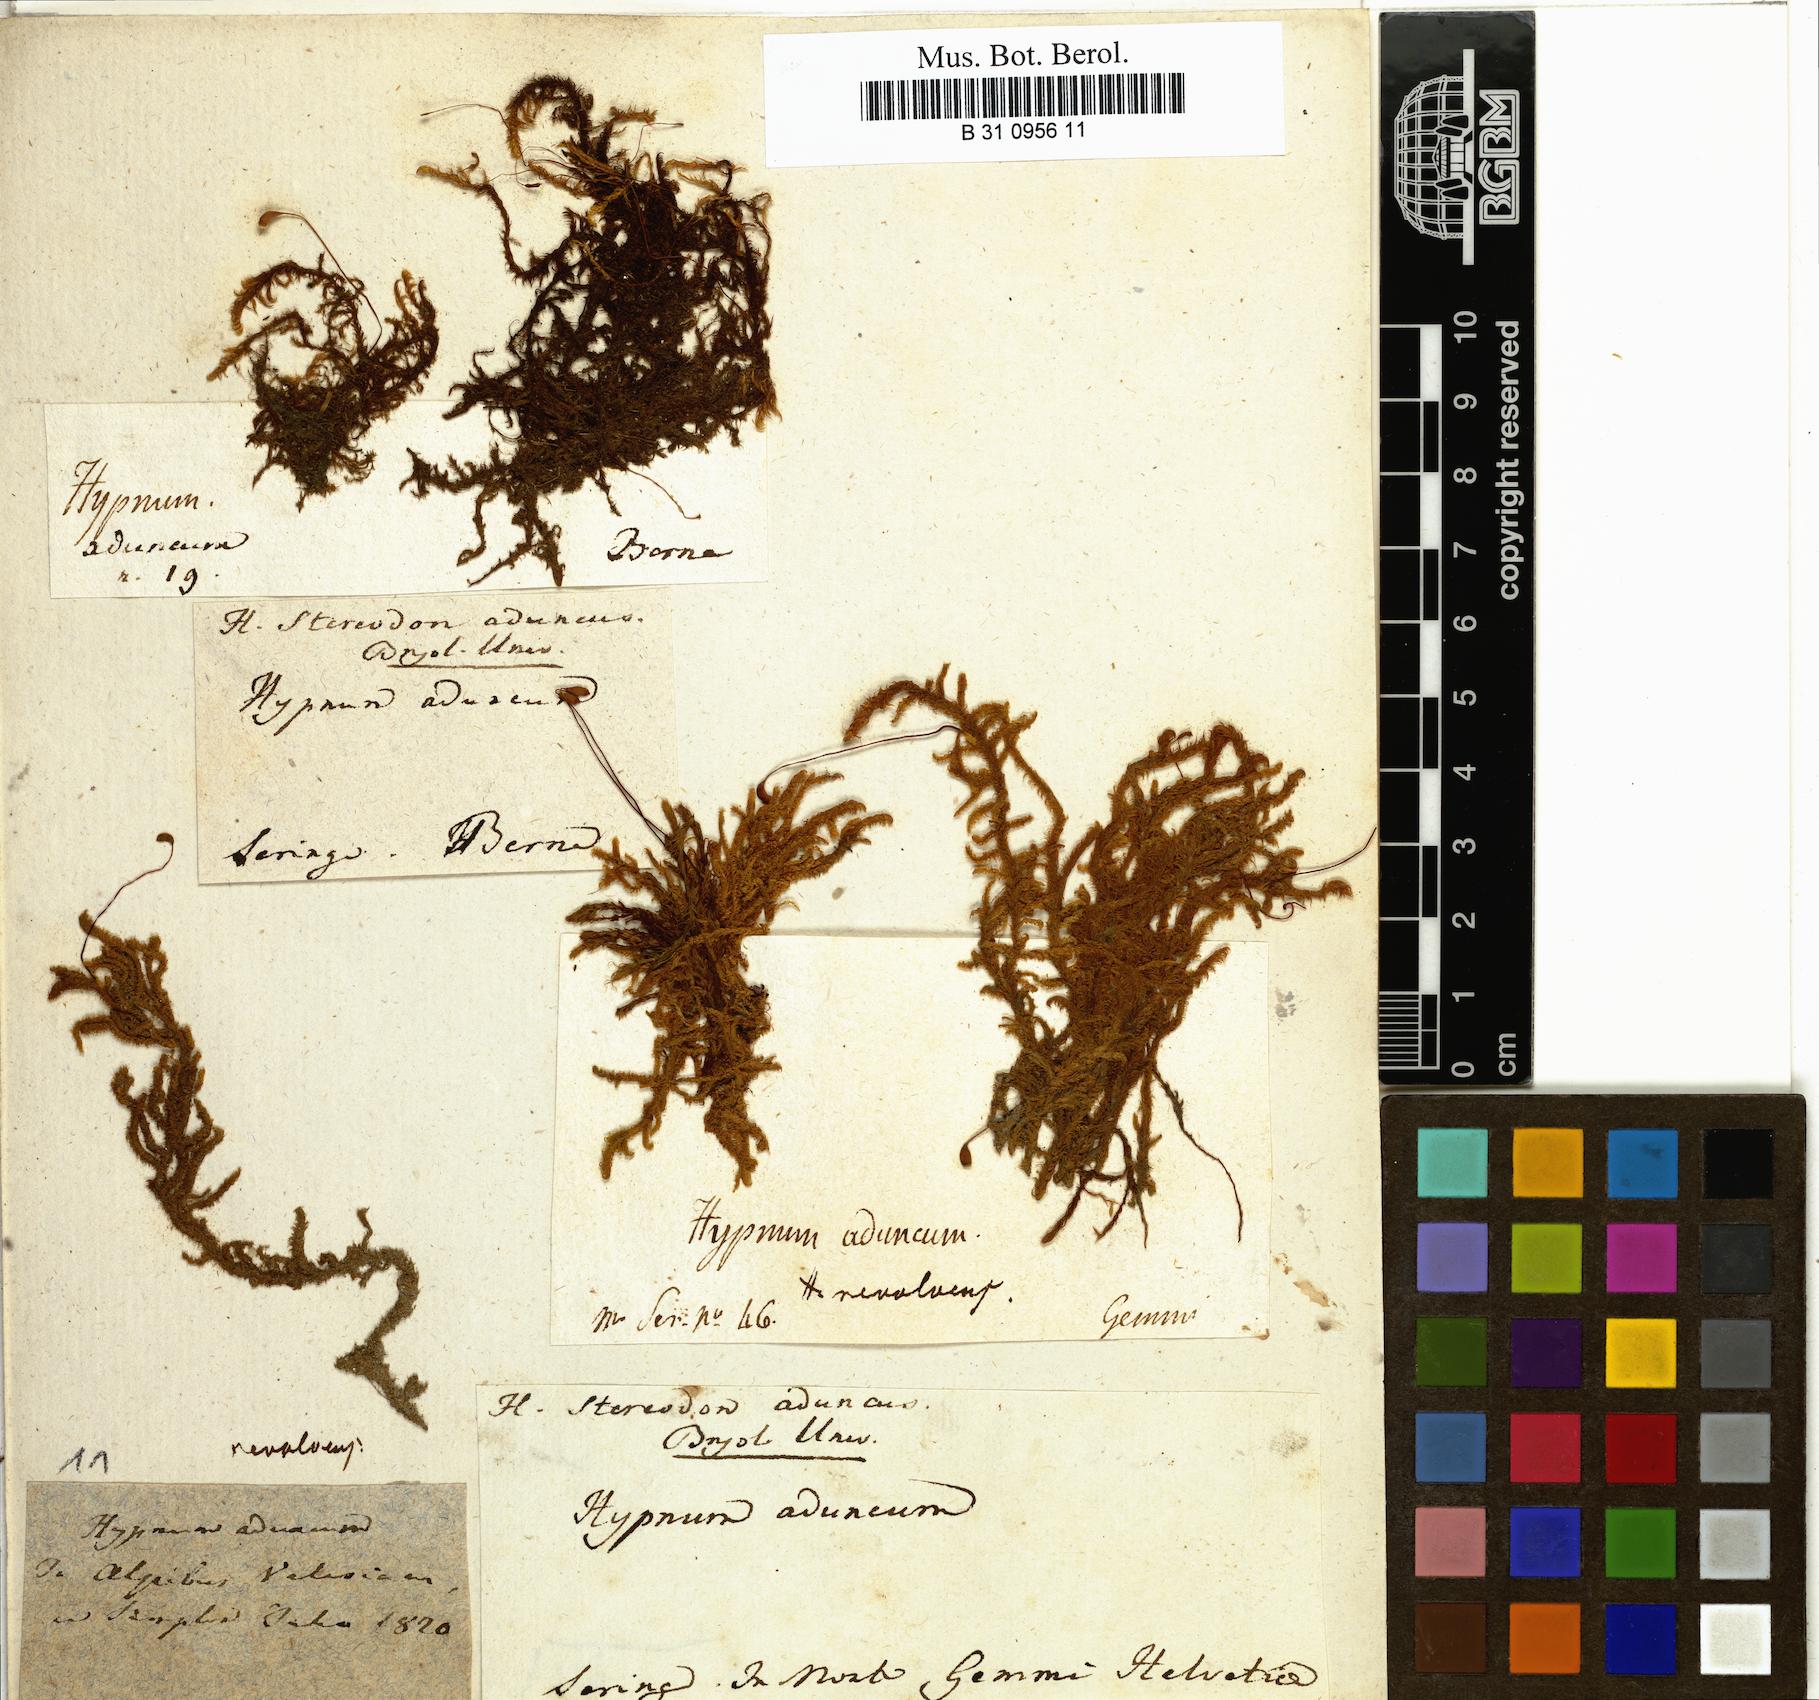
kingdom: Plantae
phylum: Bryophyta
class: Bryopsida
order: Hypnales
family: Amblystegiaceae
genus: Drepanocladus
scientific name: Drepanocladus aduncus
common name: Knieff's hook moss
